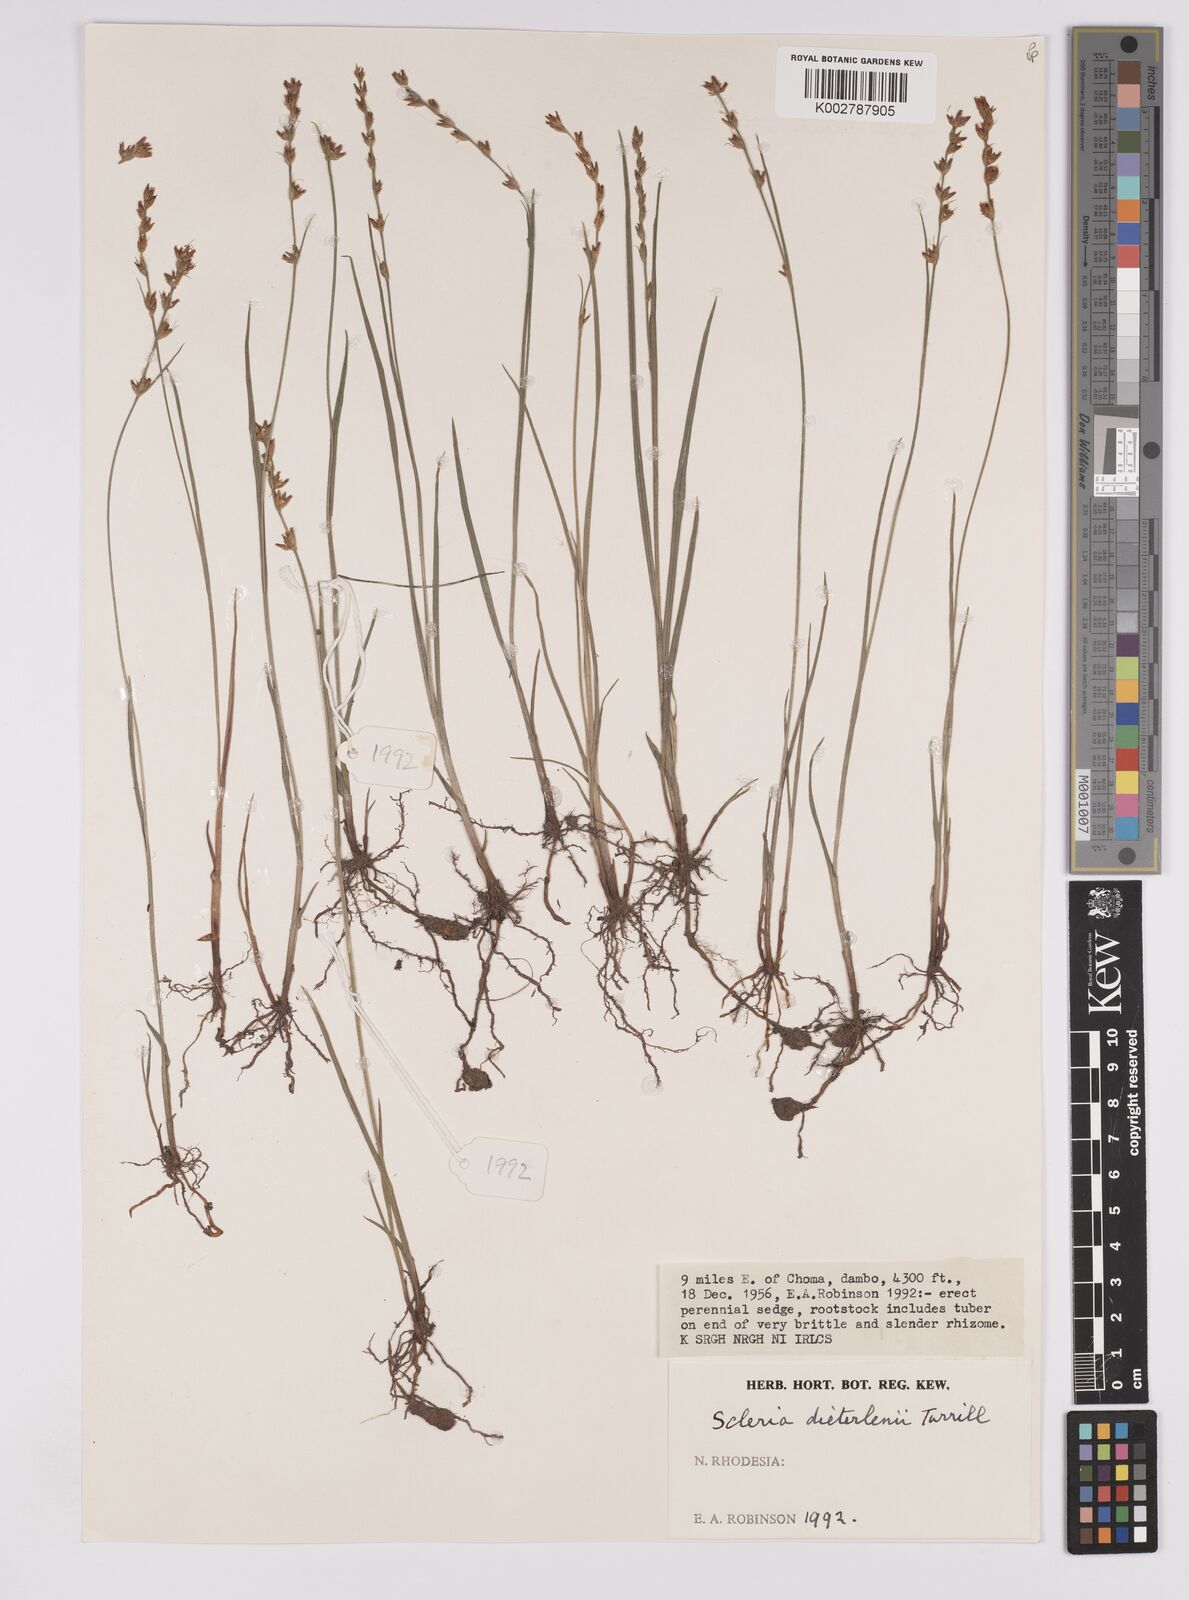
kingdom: Plantae
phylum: Tracheophyta
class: Liliopsida
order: Poales
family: Cyperaceae
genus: Scleria
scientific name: Scleria flexuosa
